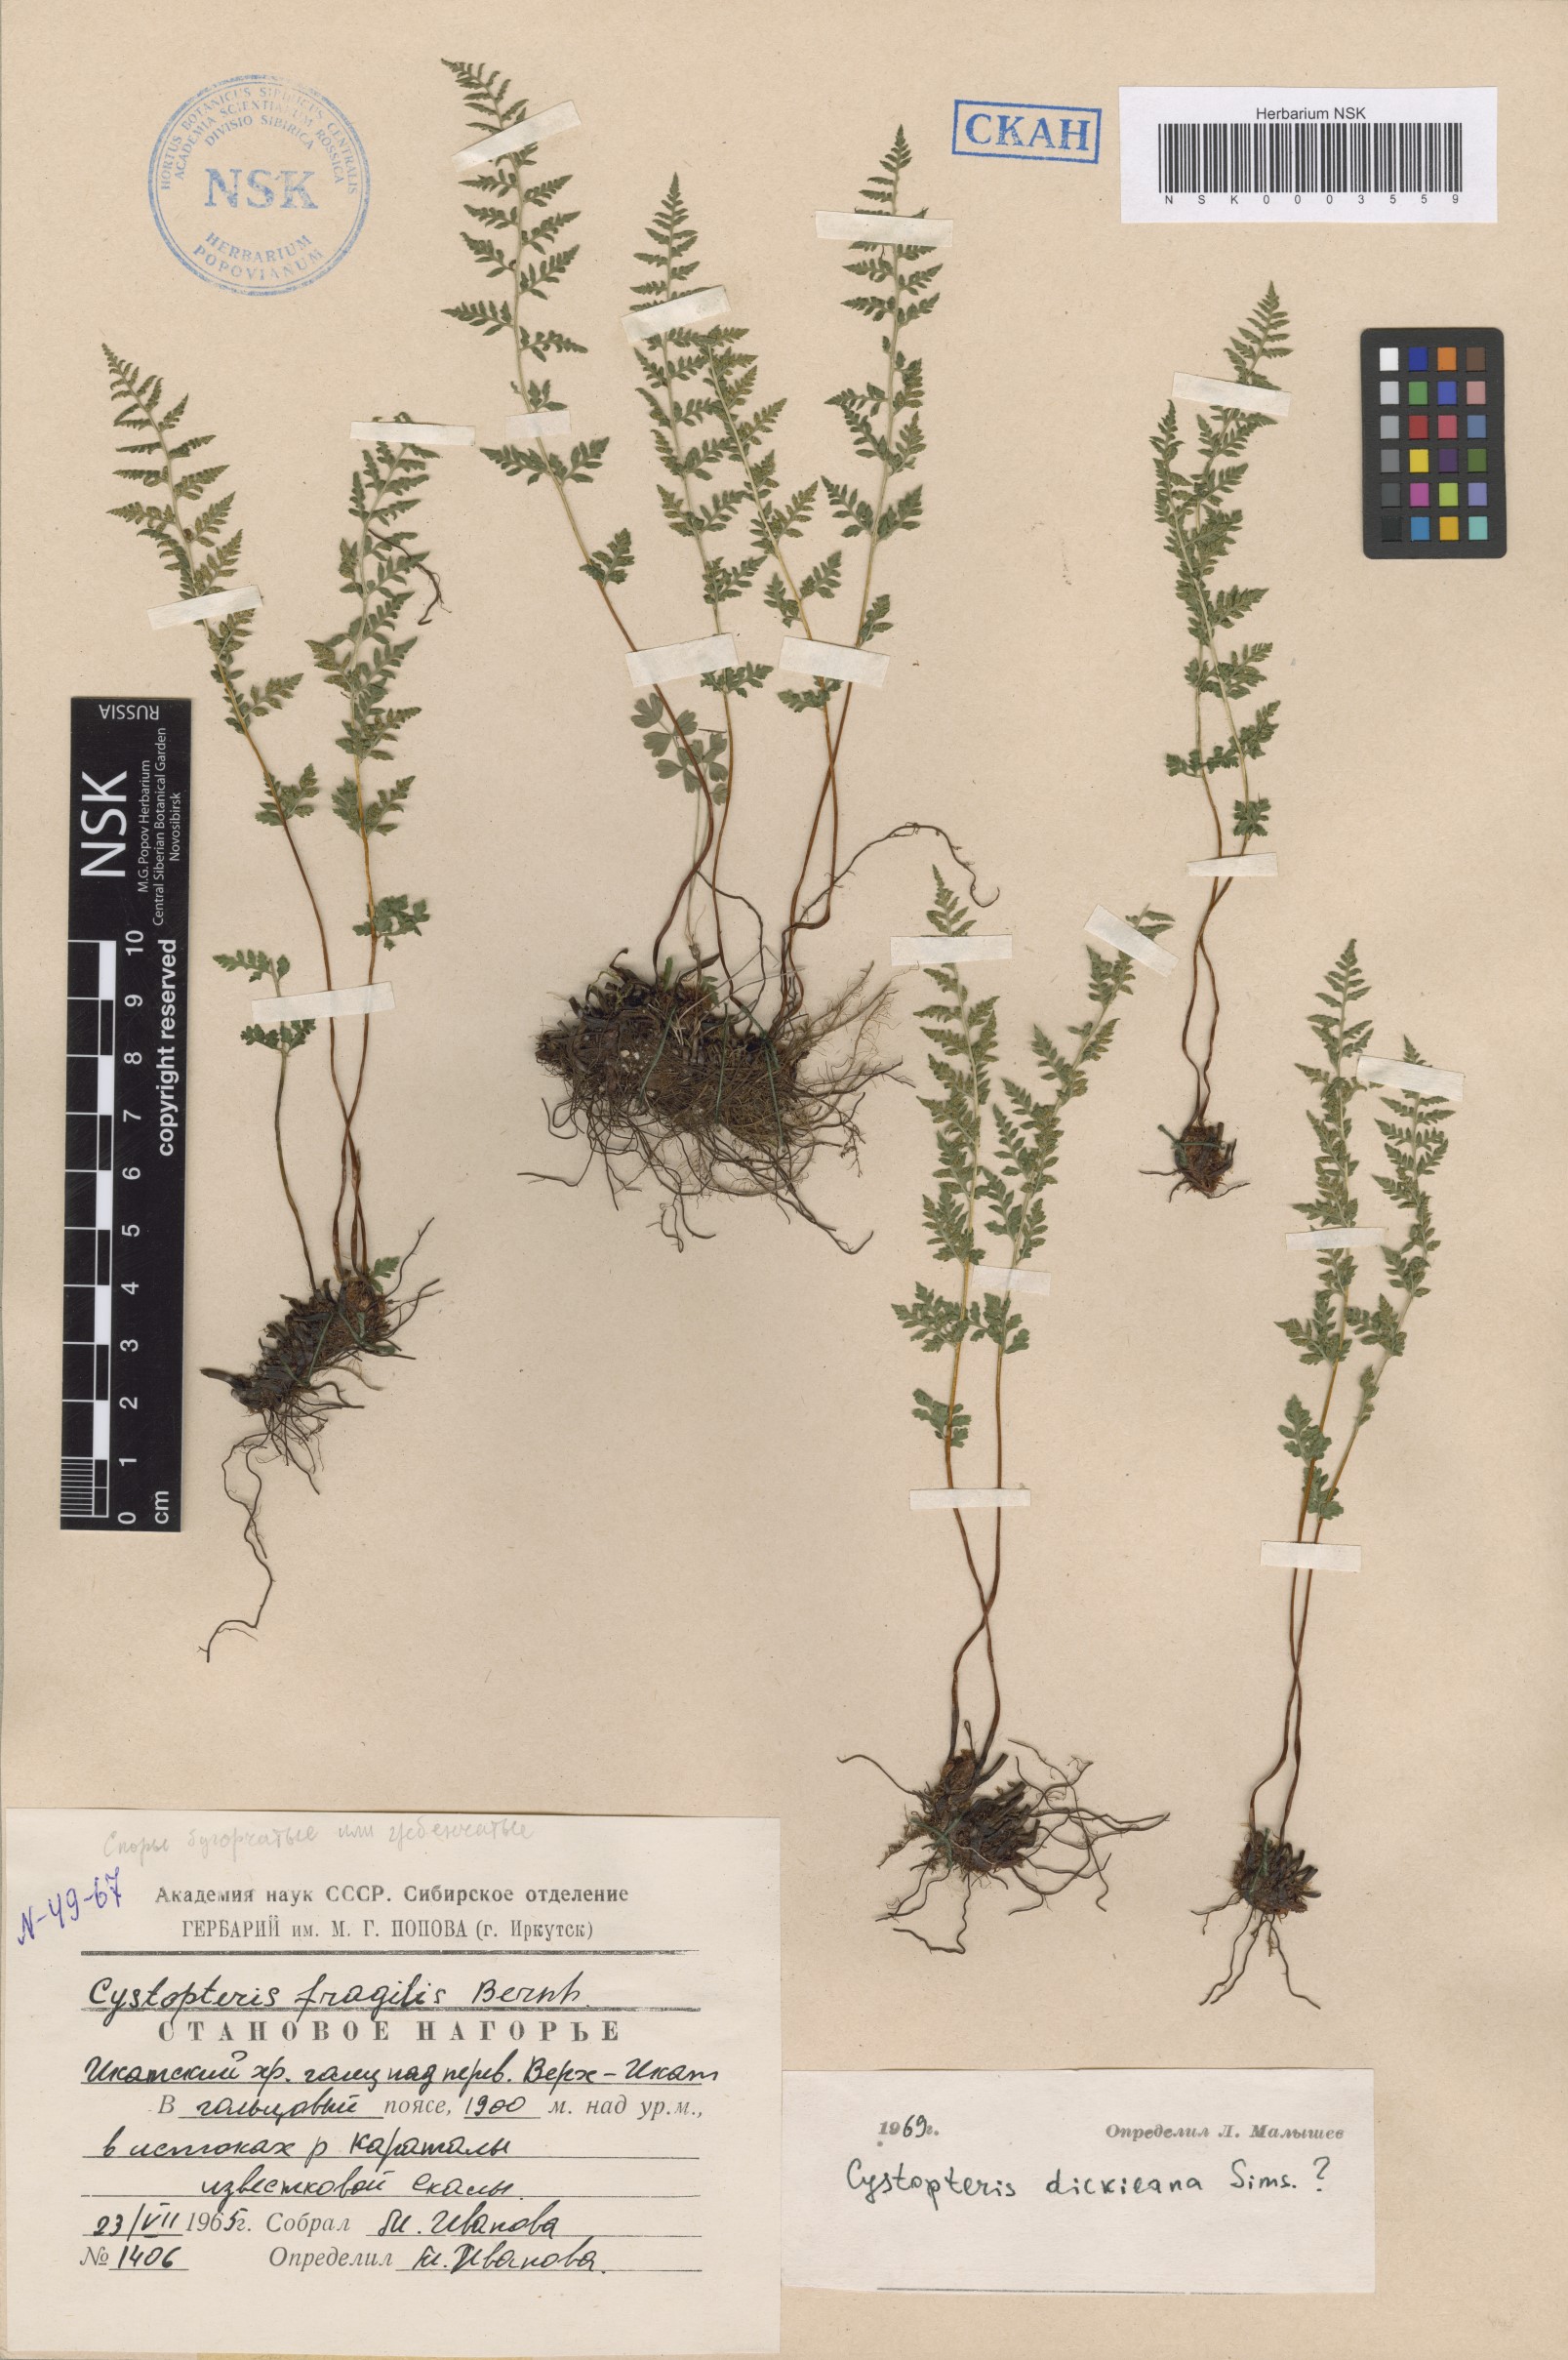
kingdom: Plantae
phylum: Tracheophyta
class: Polypodiopsida
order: Polypodiales
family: Cystopteridaceae
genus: Cystopteris
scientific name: Cystopteris dickieana
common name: Dickie's bladder-fern
